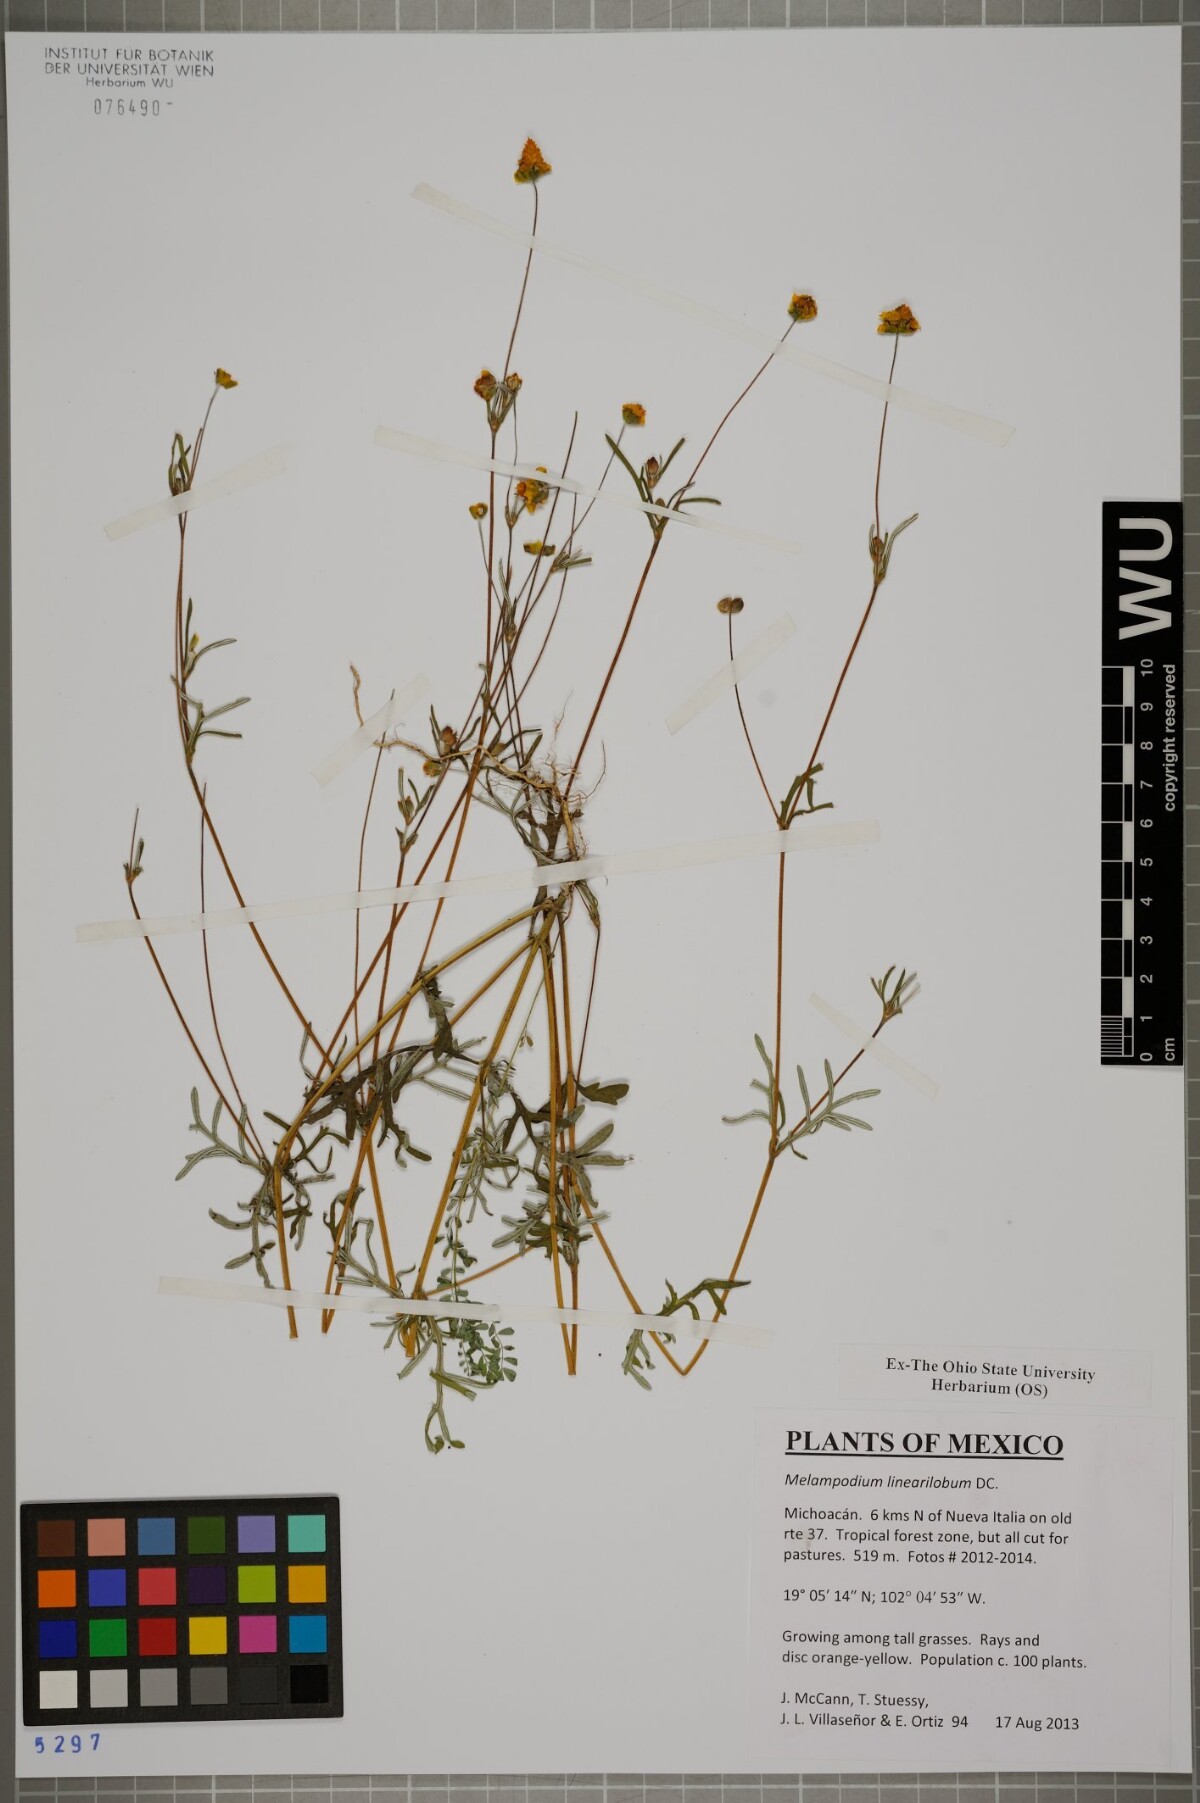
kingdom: Plantae
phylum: Tracheophyta
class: Magnoliopsida
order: Asterales
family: Asteraceae
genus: Melampodium
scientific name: Melampodium linearilobum
